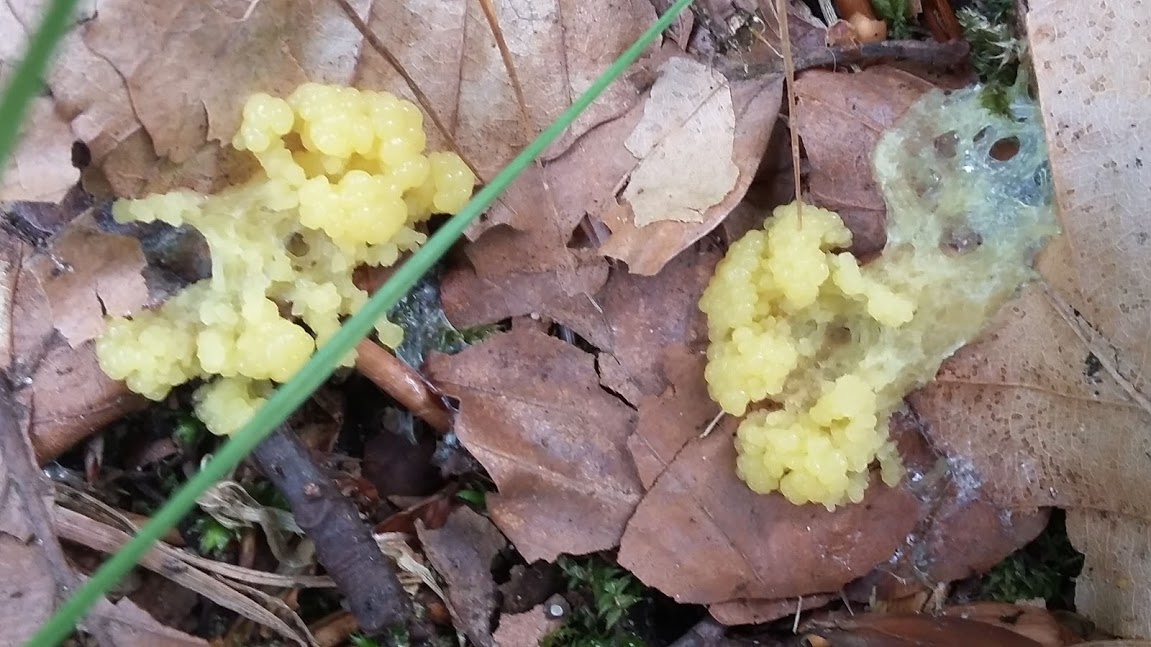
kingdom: Protozoa
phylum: Mycetozoa
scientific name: Mycetozoa
